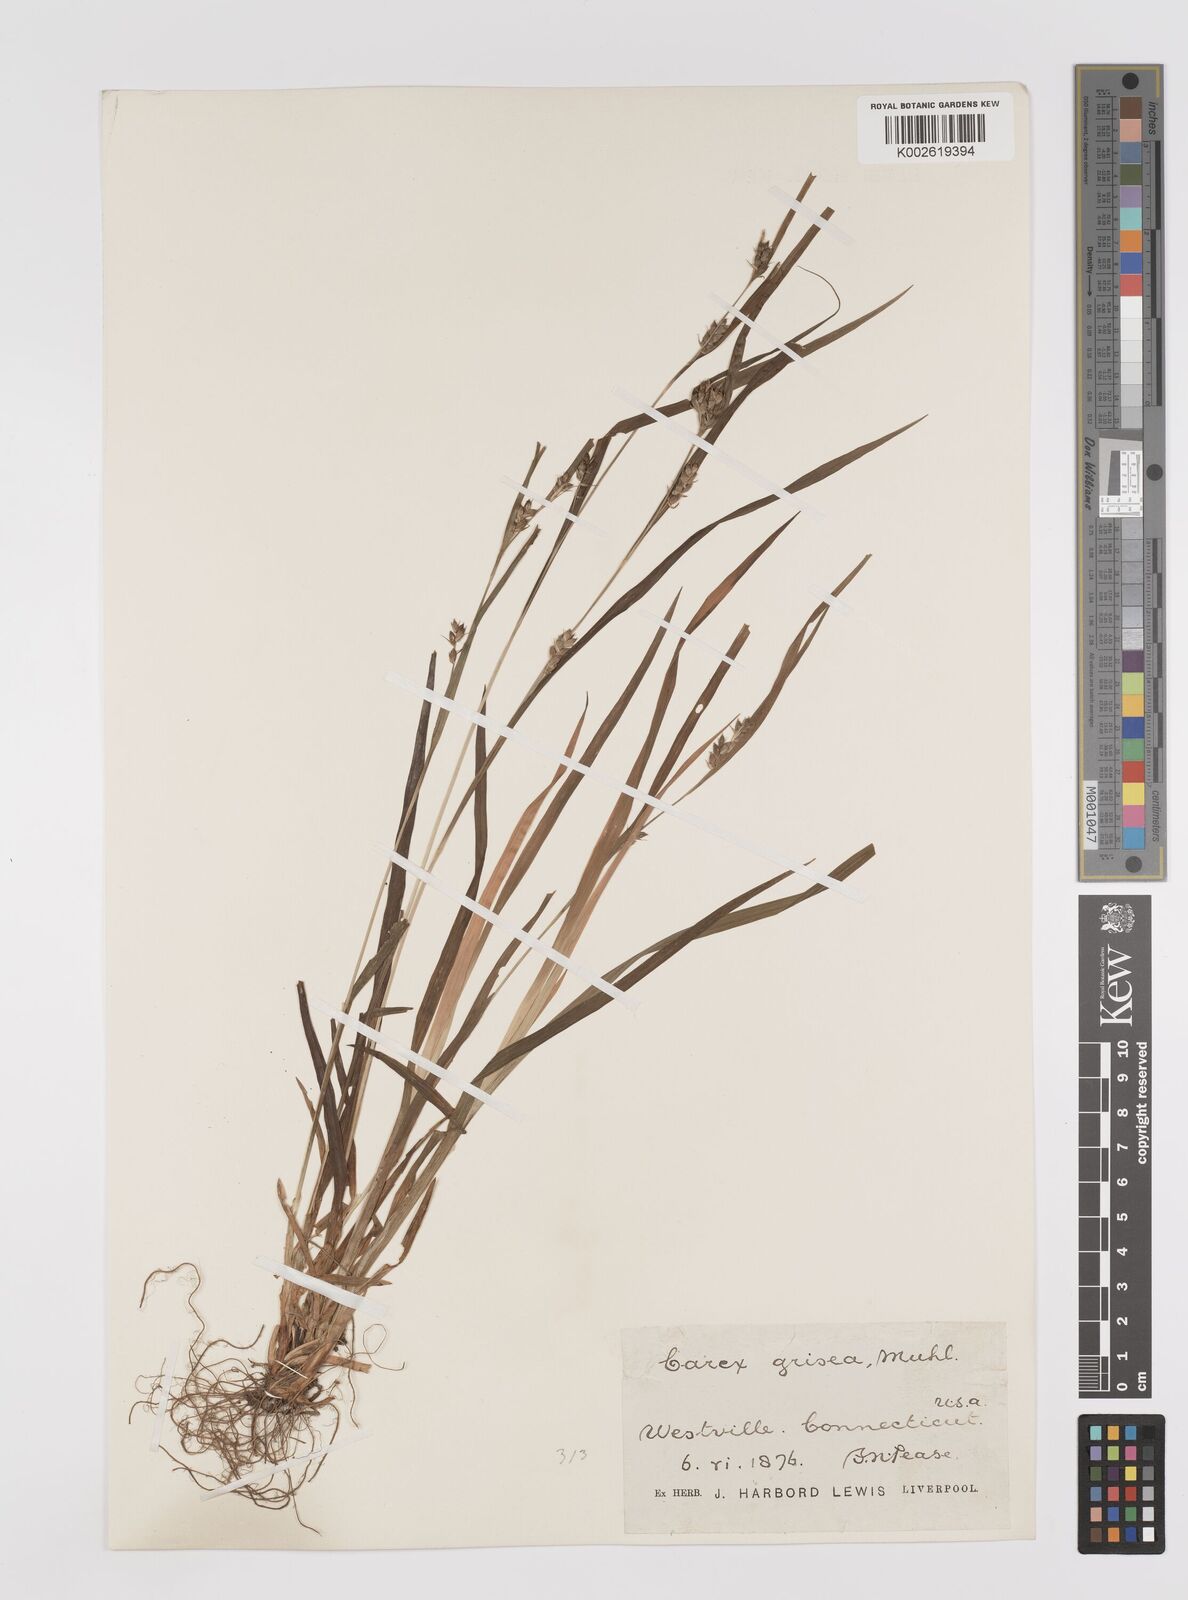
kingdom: Plantae
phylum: Tracheophyta
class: Liliopsida
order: Poales
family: Cyperaceae
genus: Carex
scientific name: Carex grisea
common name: Eastern narrow-leaved sedge
